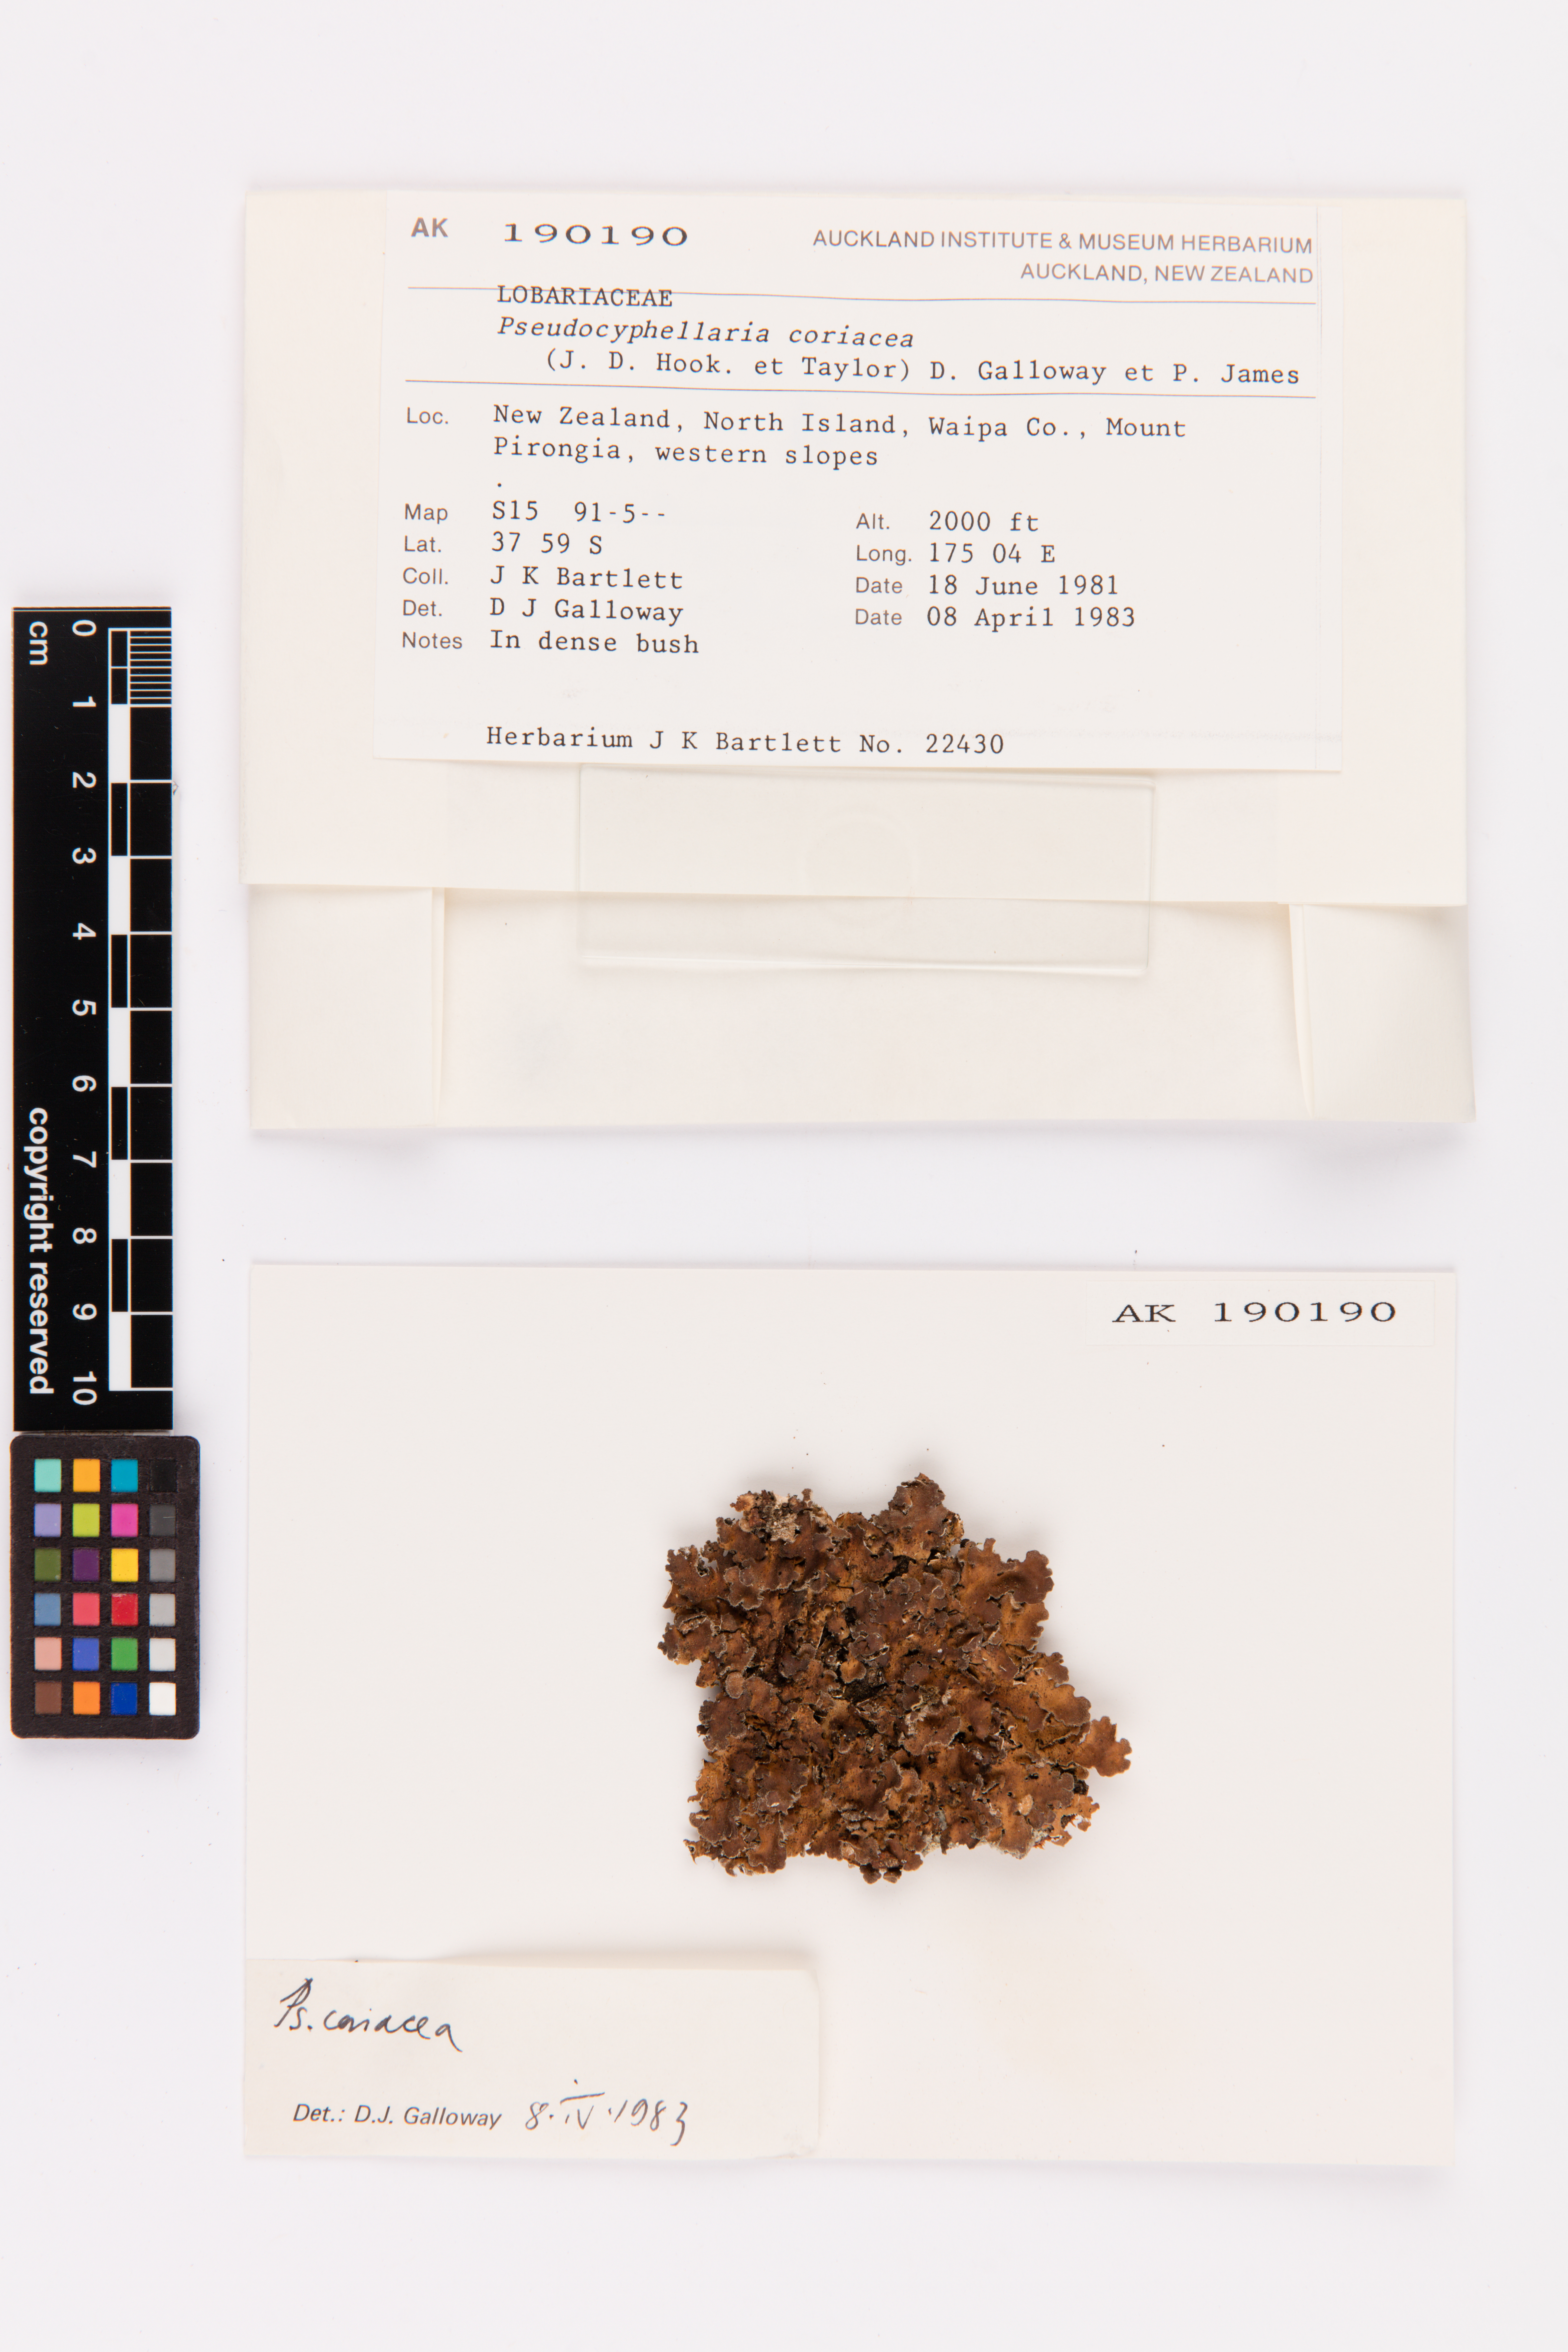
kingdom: Fungi
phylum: Ascomycota
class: Lecanoromycetes
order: Peltigerales
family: Lobariaceae
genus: Pseudocyphellaria
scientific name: Pseudocyphellaria coriacea
